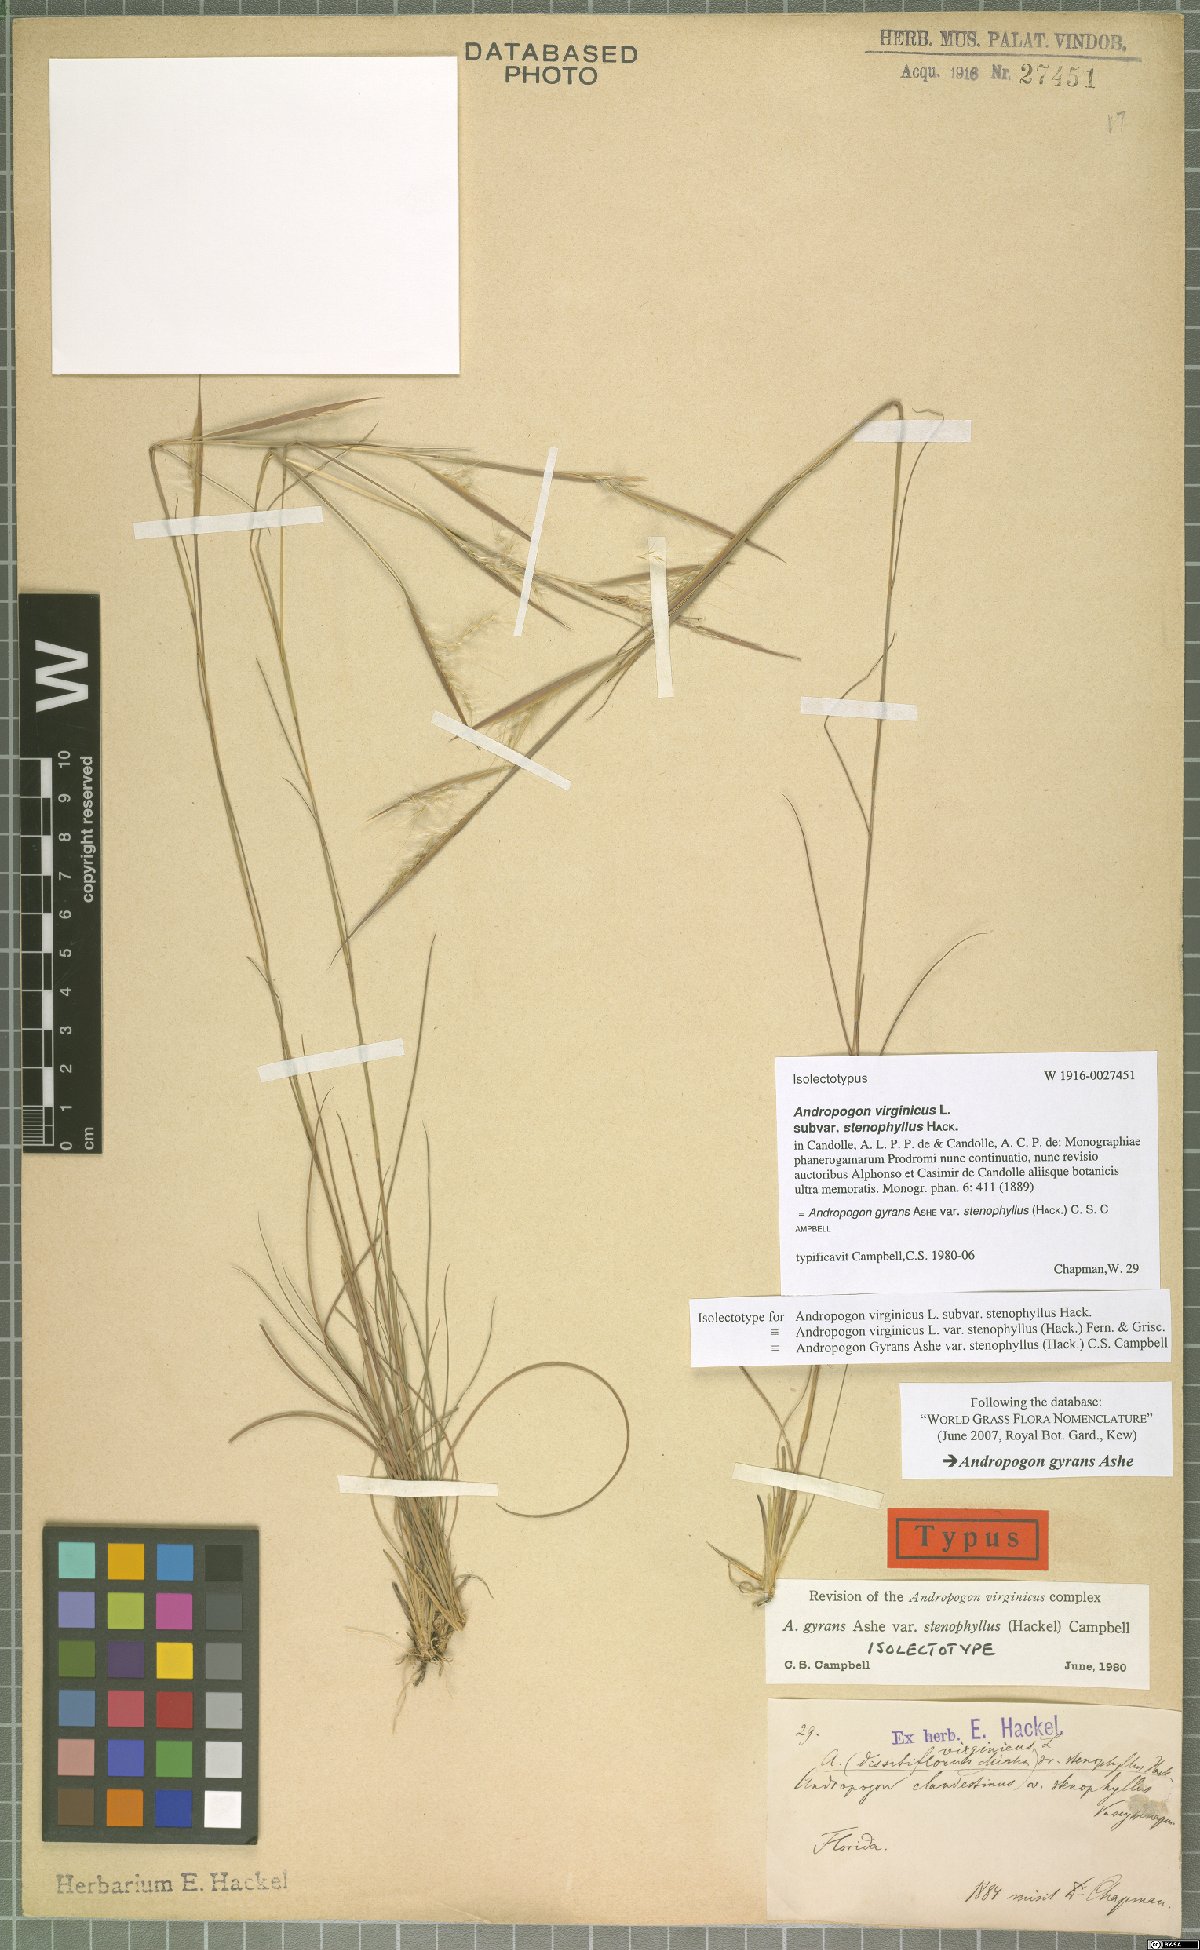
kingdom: Plantae
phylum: Tracheophyta
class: Liliopsida
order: Poales
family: Poaceae
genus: Andropogon
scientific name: Andropogon perangustatus
